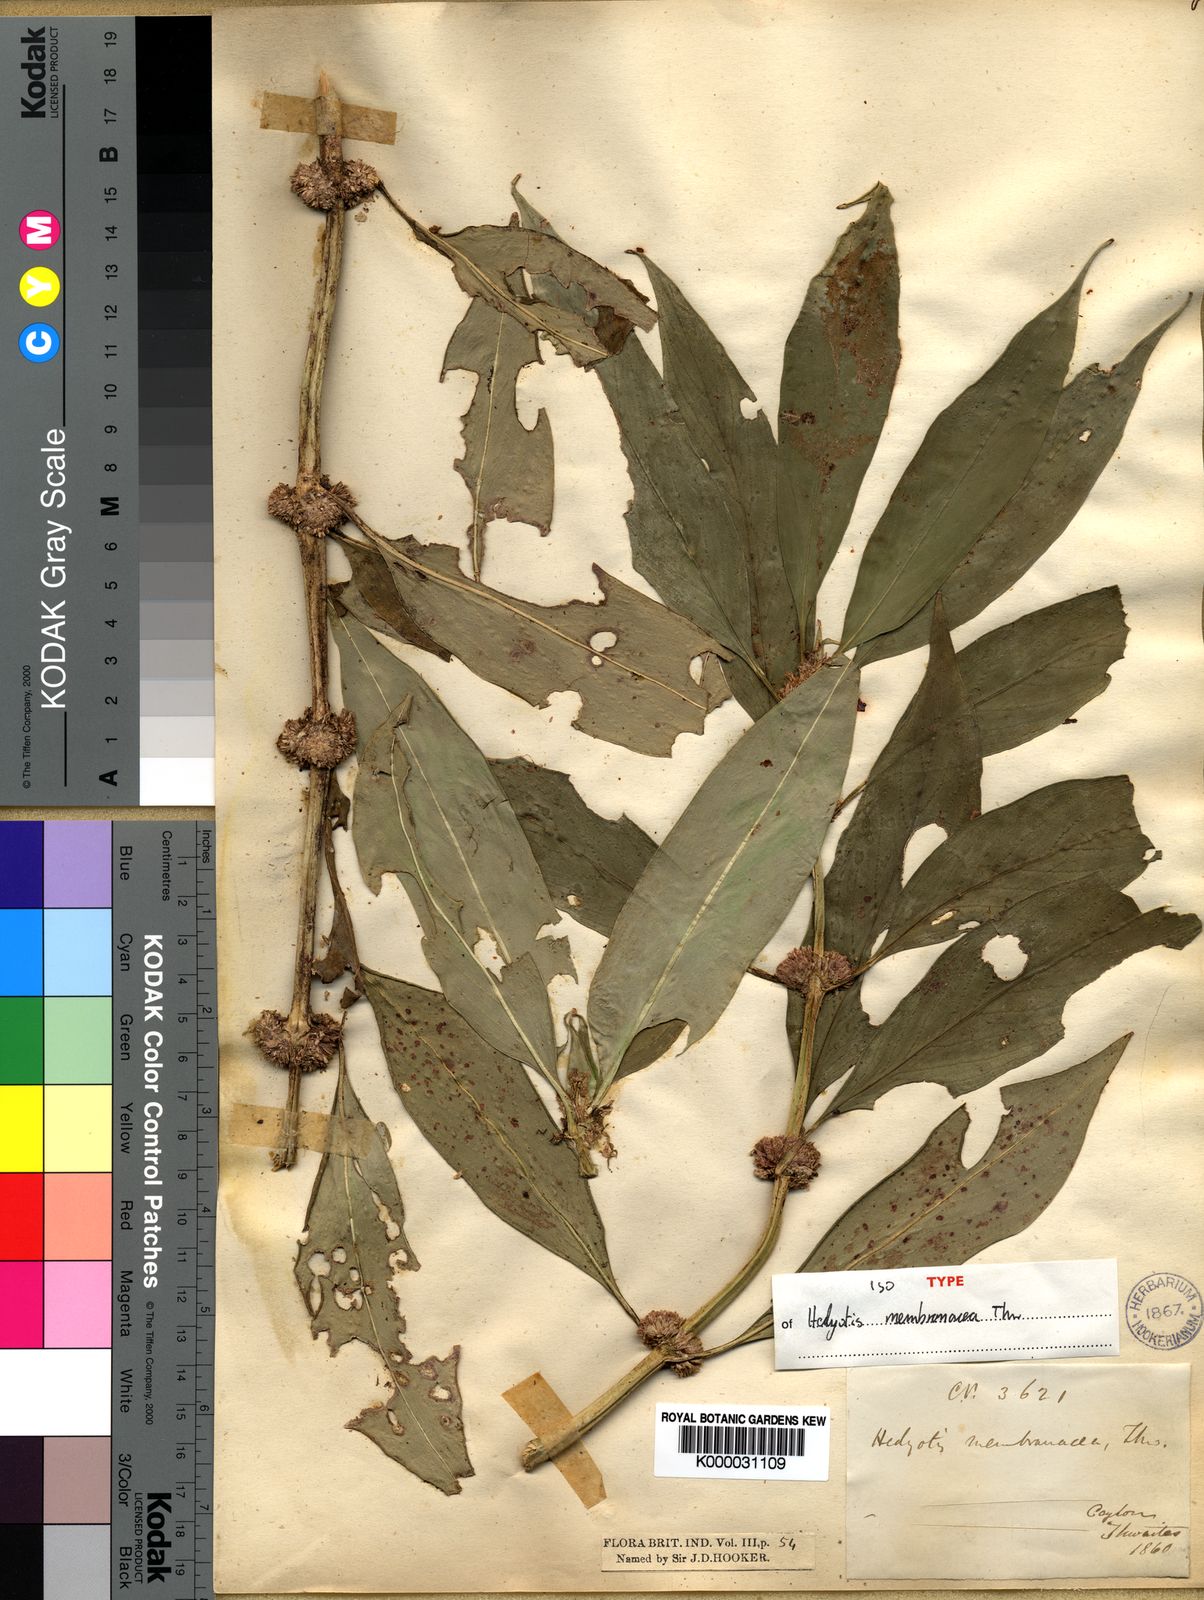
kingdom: Plantae
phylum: Tracheophyta
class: Magnoliopsida
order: Gentianales
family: Rubiaceae
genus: Hedyotis
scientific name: Hedyotis membranacea
